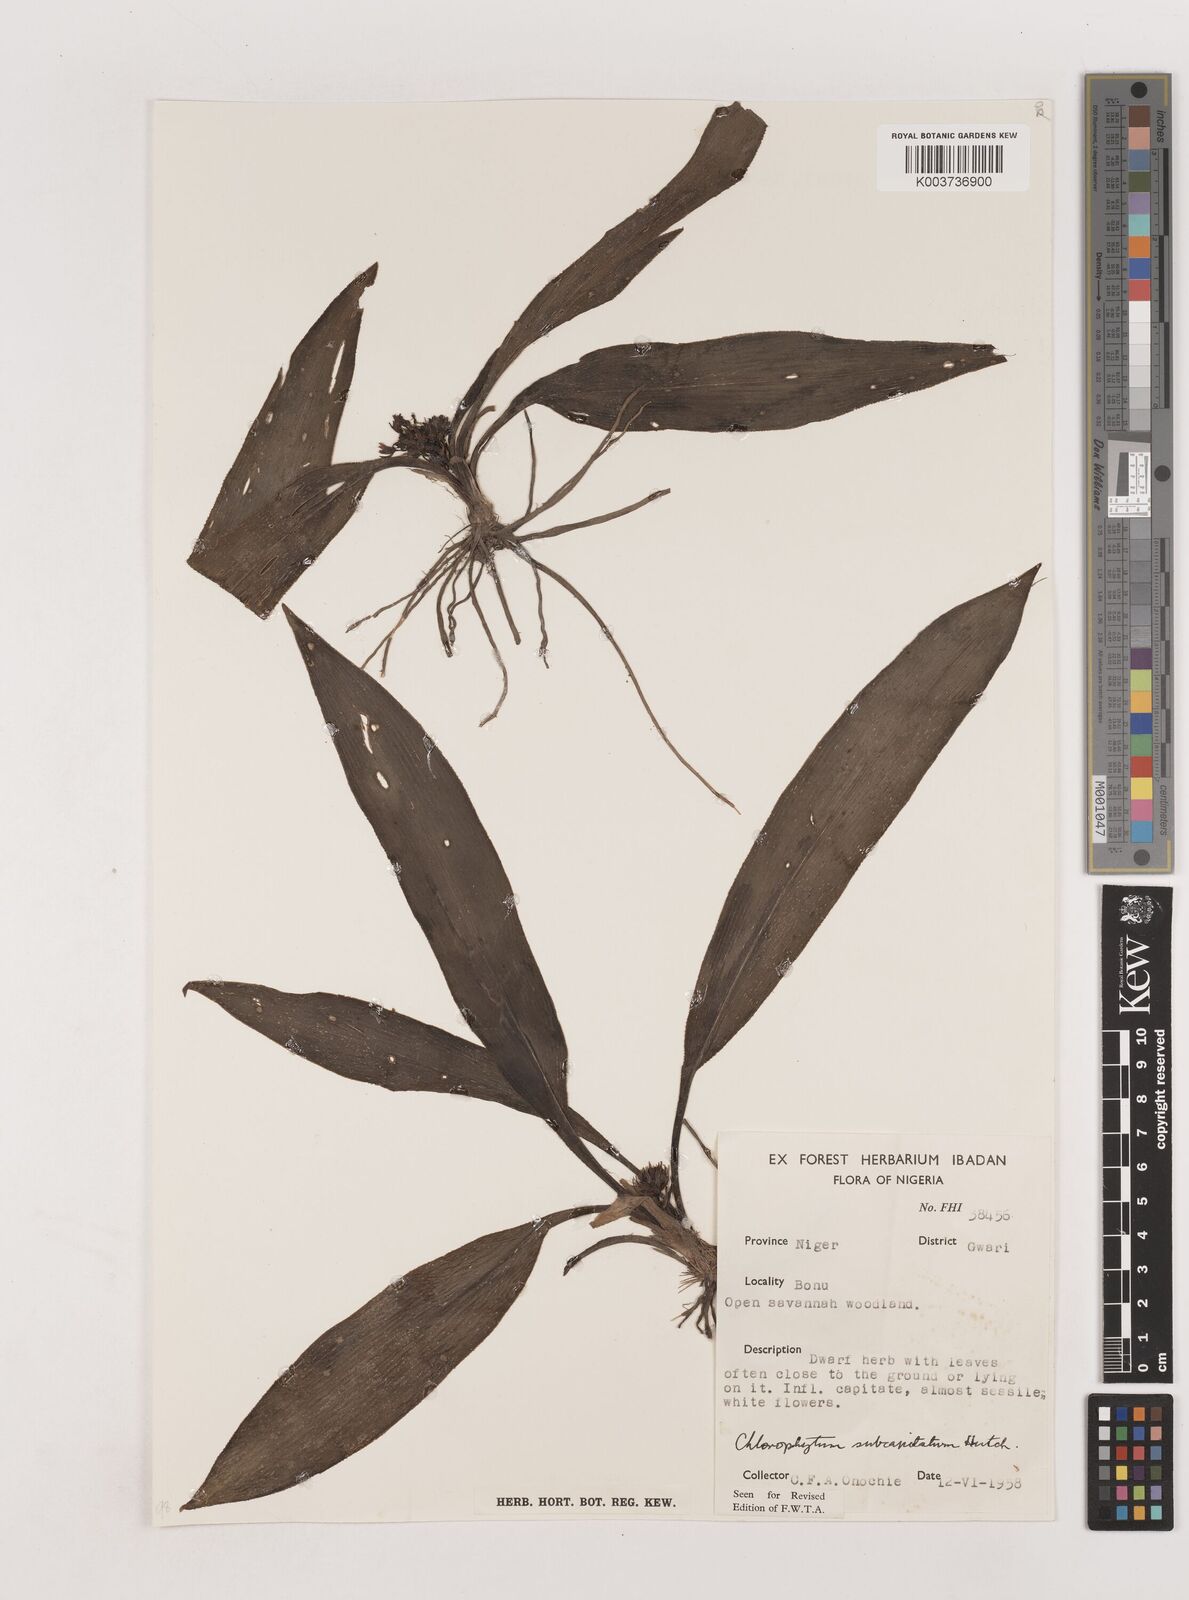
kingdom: Plantae
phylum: Tracheophyta
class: Liliopsida
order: Asparagales
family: Asparagaceae
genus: Chlorophytum
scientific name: Chlorophytum geophilum
